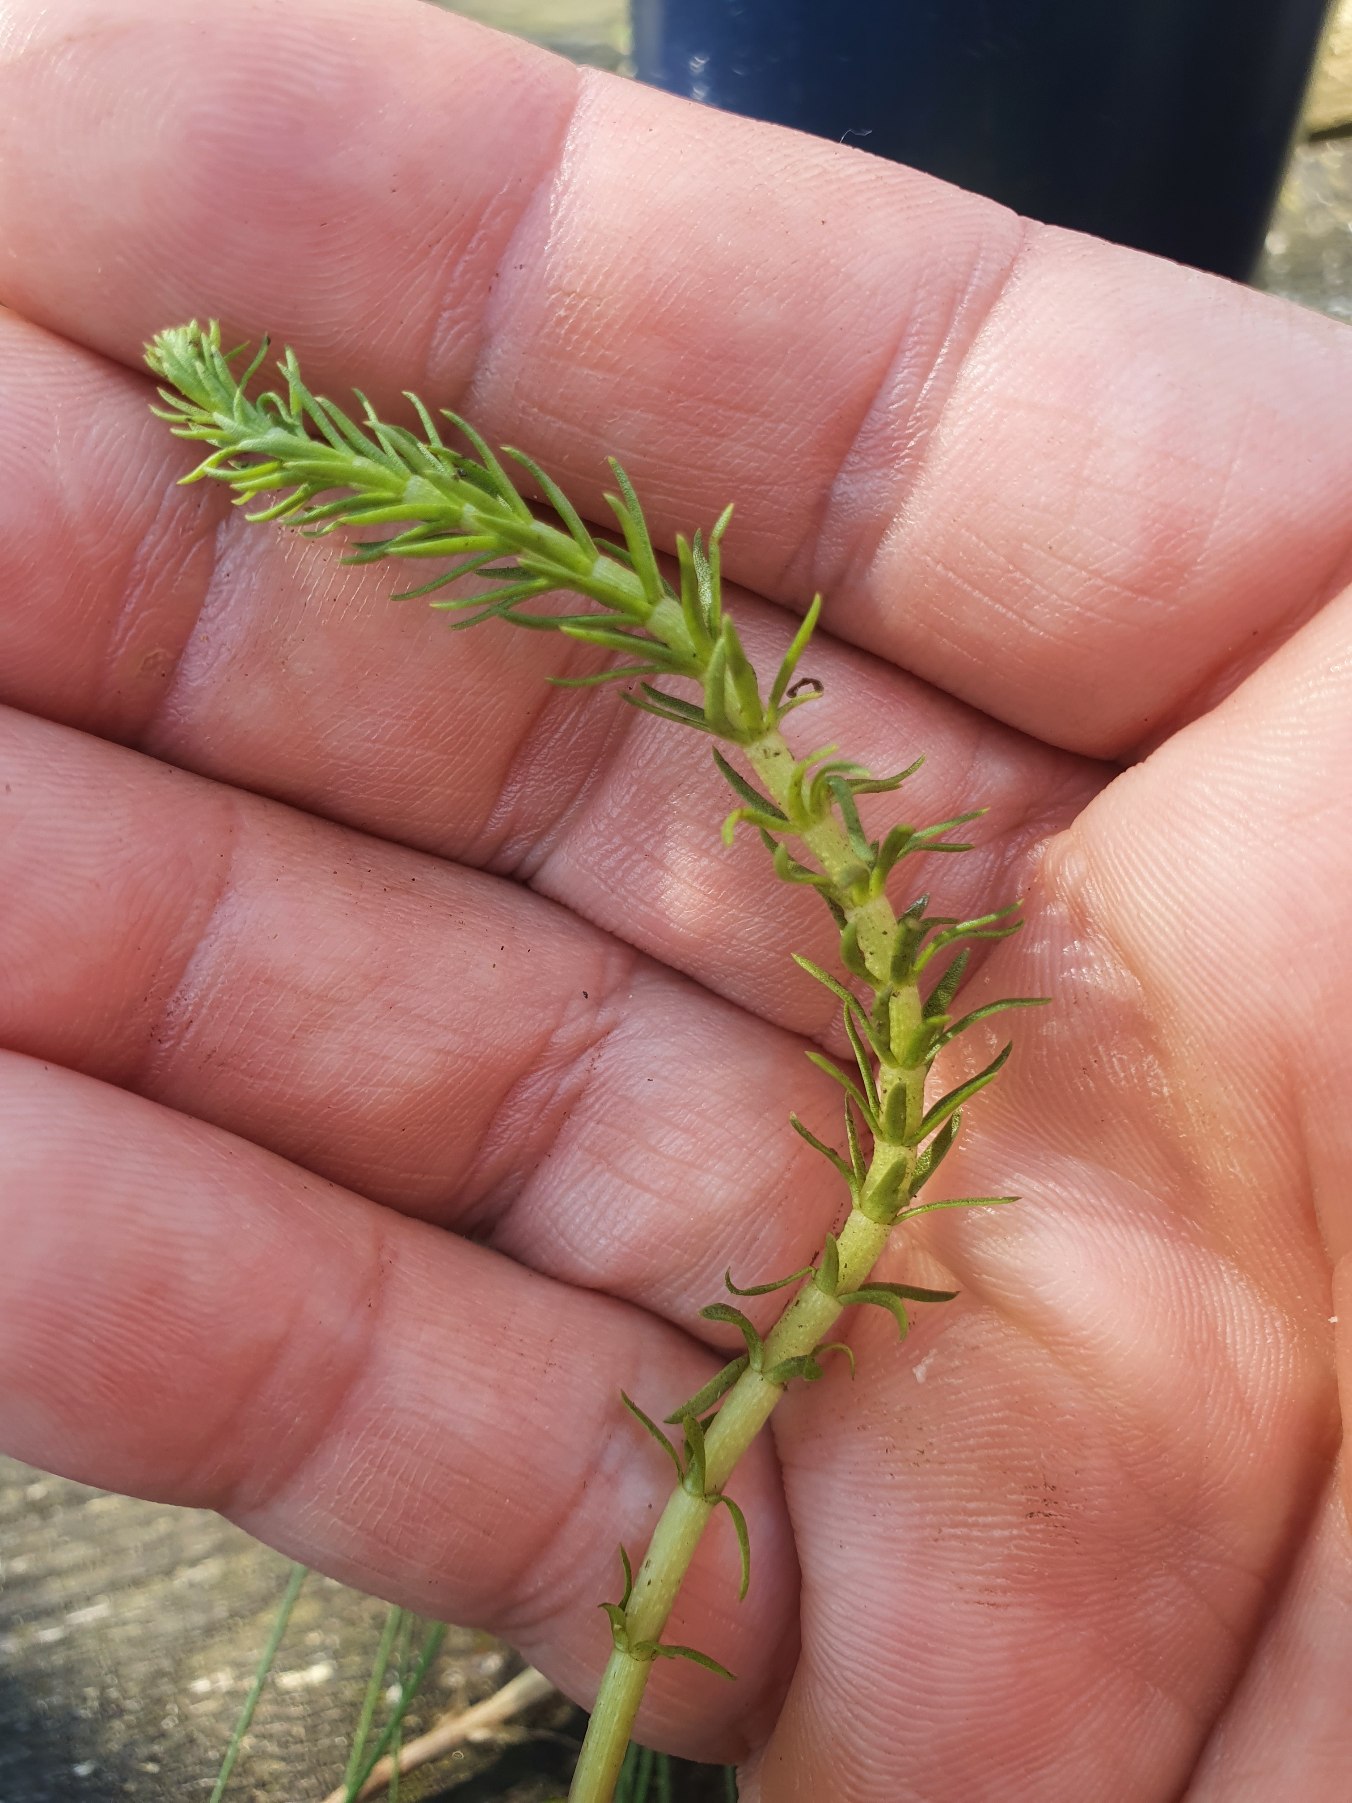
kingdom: Plantae
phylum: Tracheophyta
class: Magnoliopsida
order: Lamiales
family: Plantaginaceae
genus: Hippuris
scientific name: Hippuris vulgaris
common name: Vandspir
